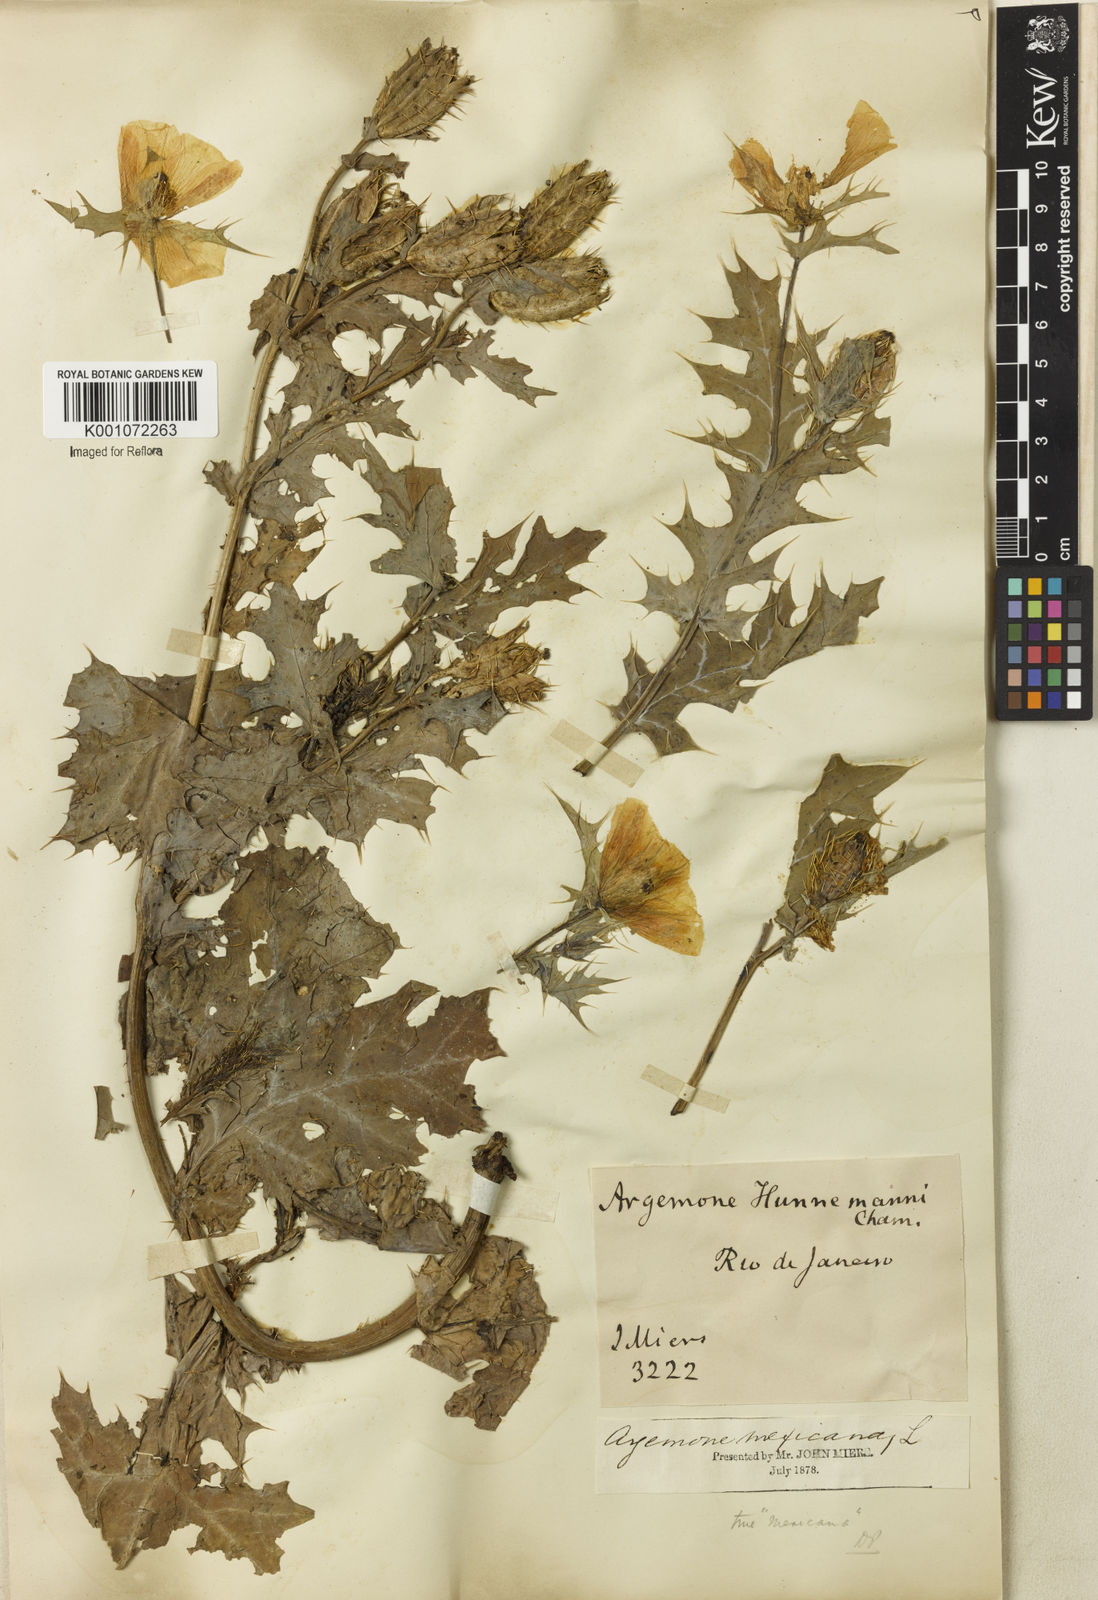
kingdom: Plantae
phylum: Tracheophyta
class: Magnoliopsida
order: Ranunculales
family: Papaveraceae
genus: Argemone
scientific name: Argemone mexicana
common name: Mexican poppy
